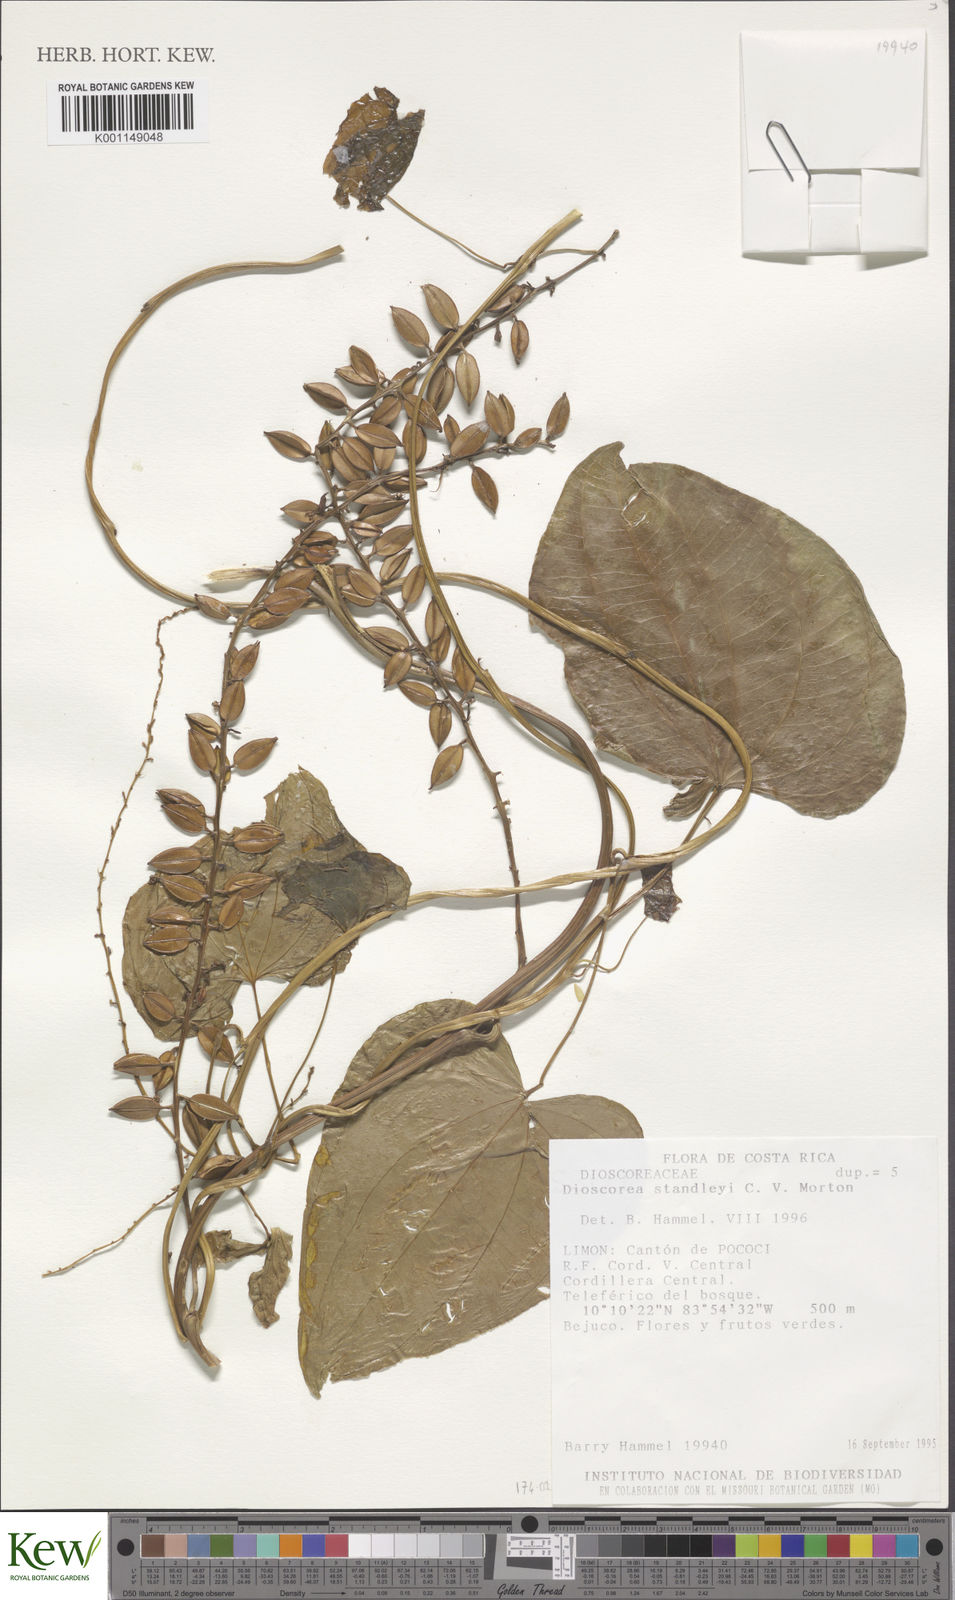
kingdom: Plantae
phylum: Tracheophyta
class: Liliopsida
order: Dioscoreales
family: Dioscoreaceae
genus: Dioscorea
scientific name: Dioscorea standleyi
